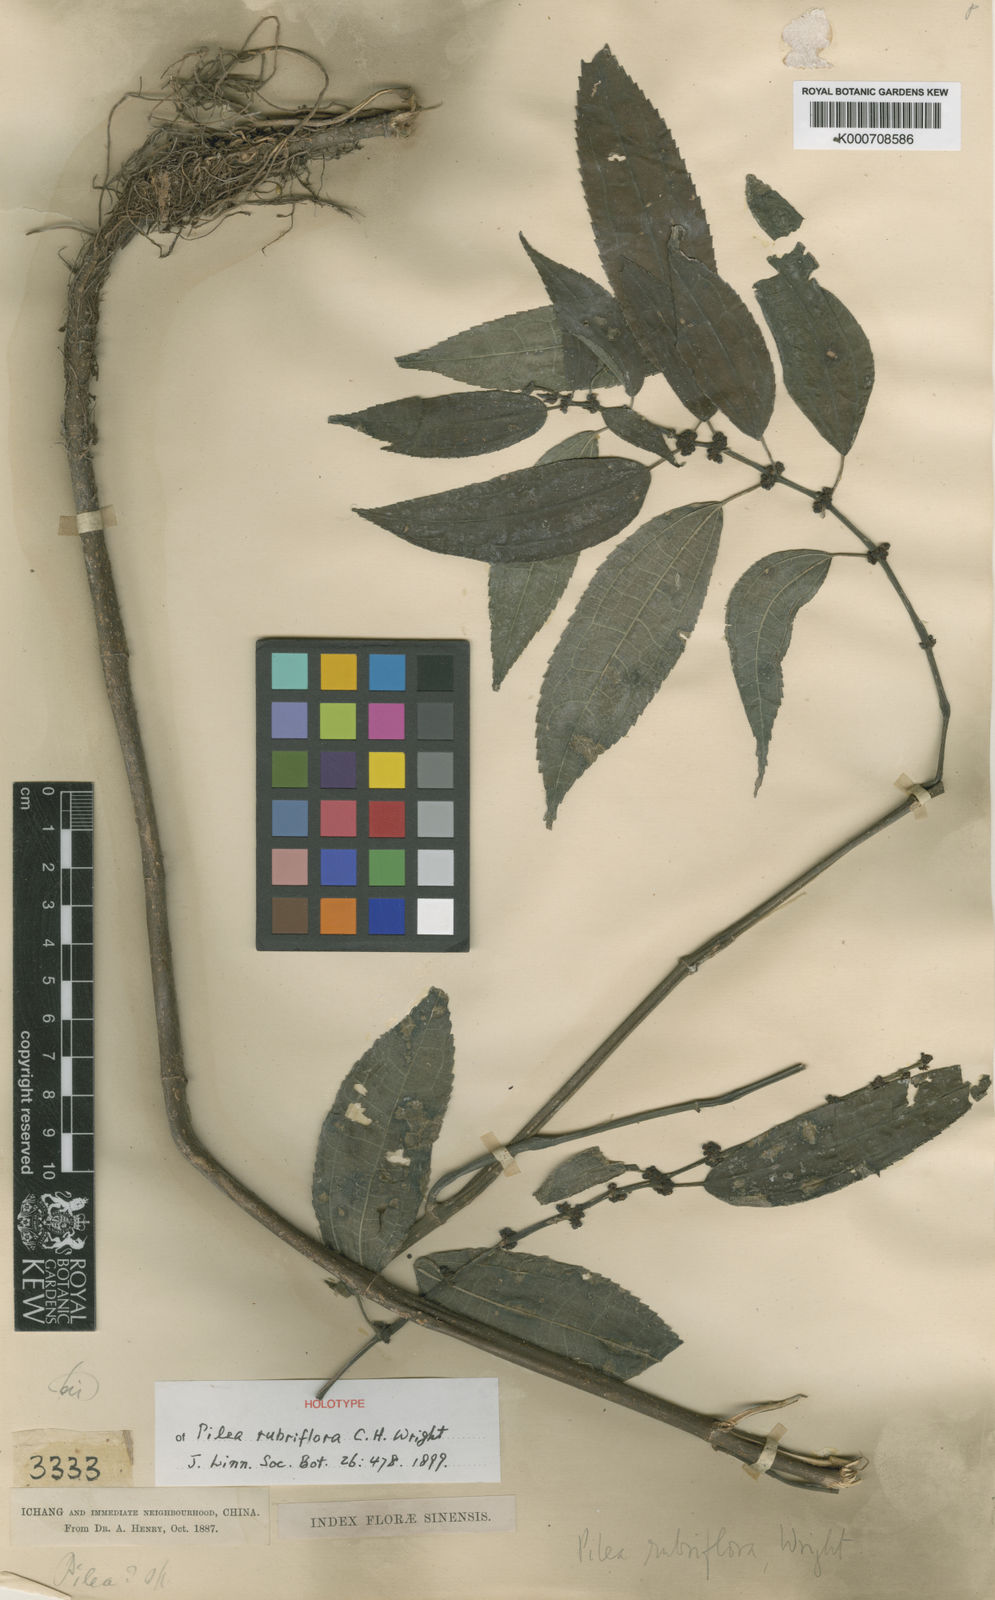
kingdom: Plantae
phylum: Tracheophyta
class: Magnoliopsida
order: Rosales
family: Urticaceae
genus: Pilea
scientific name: Pilea rubriflora
